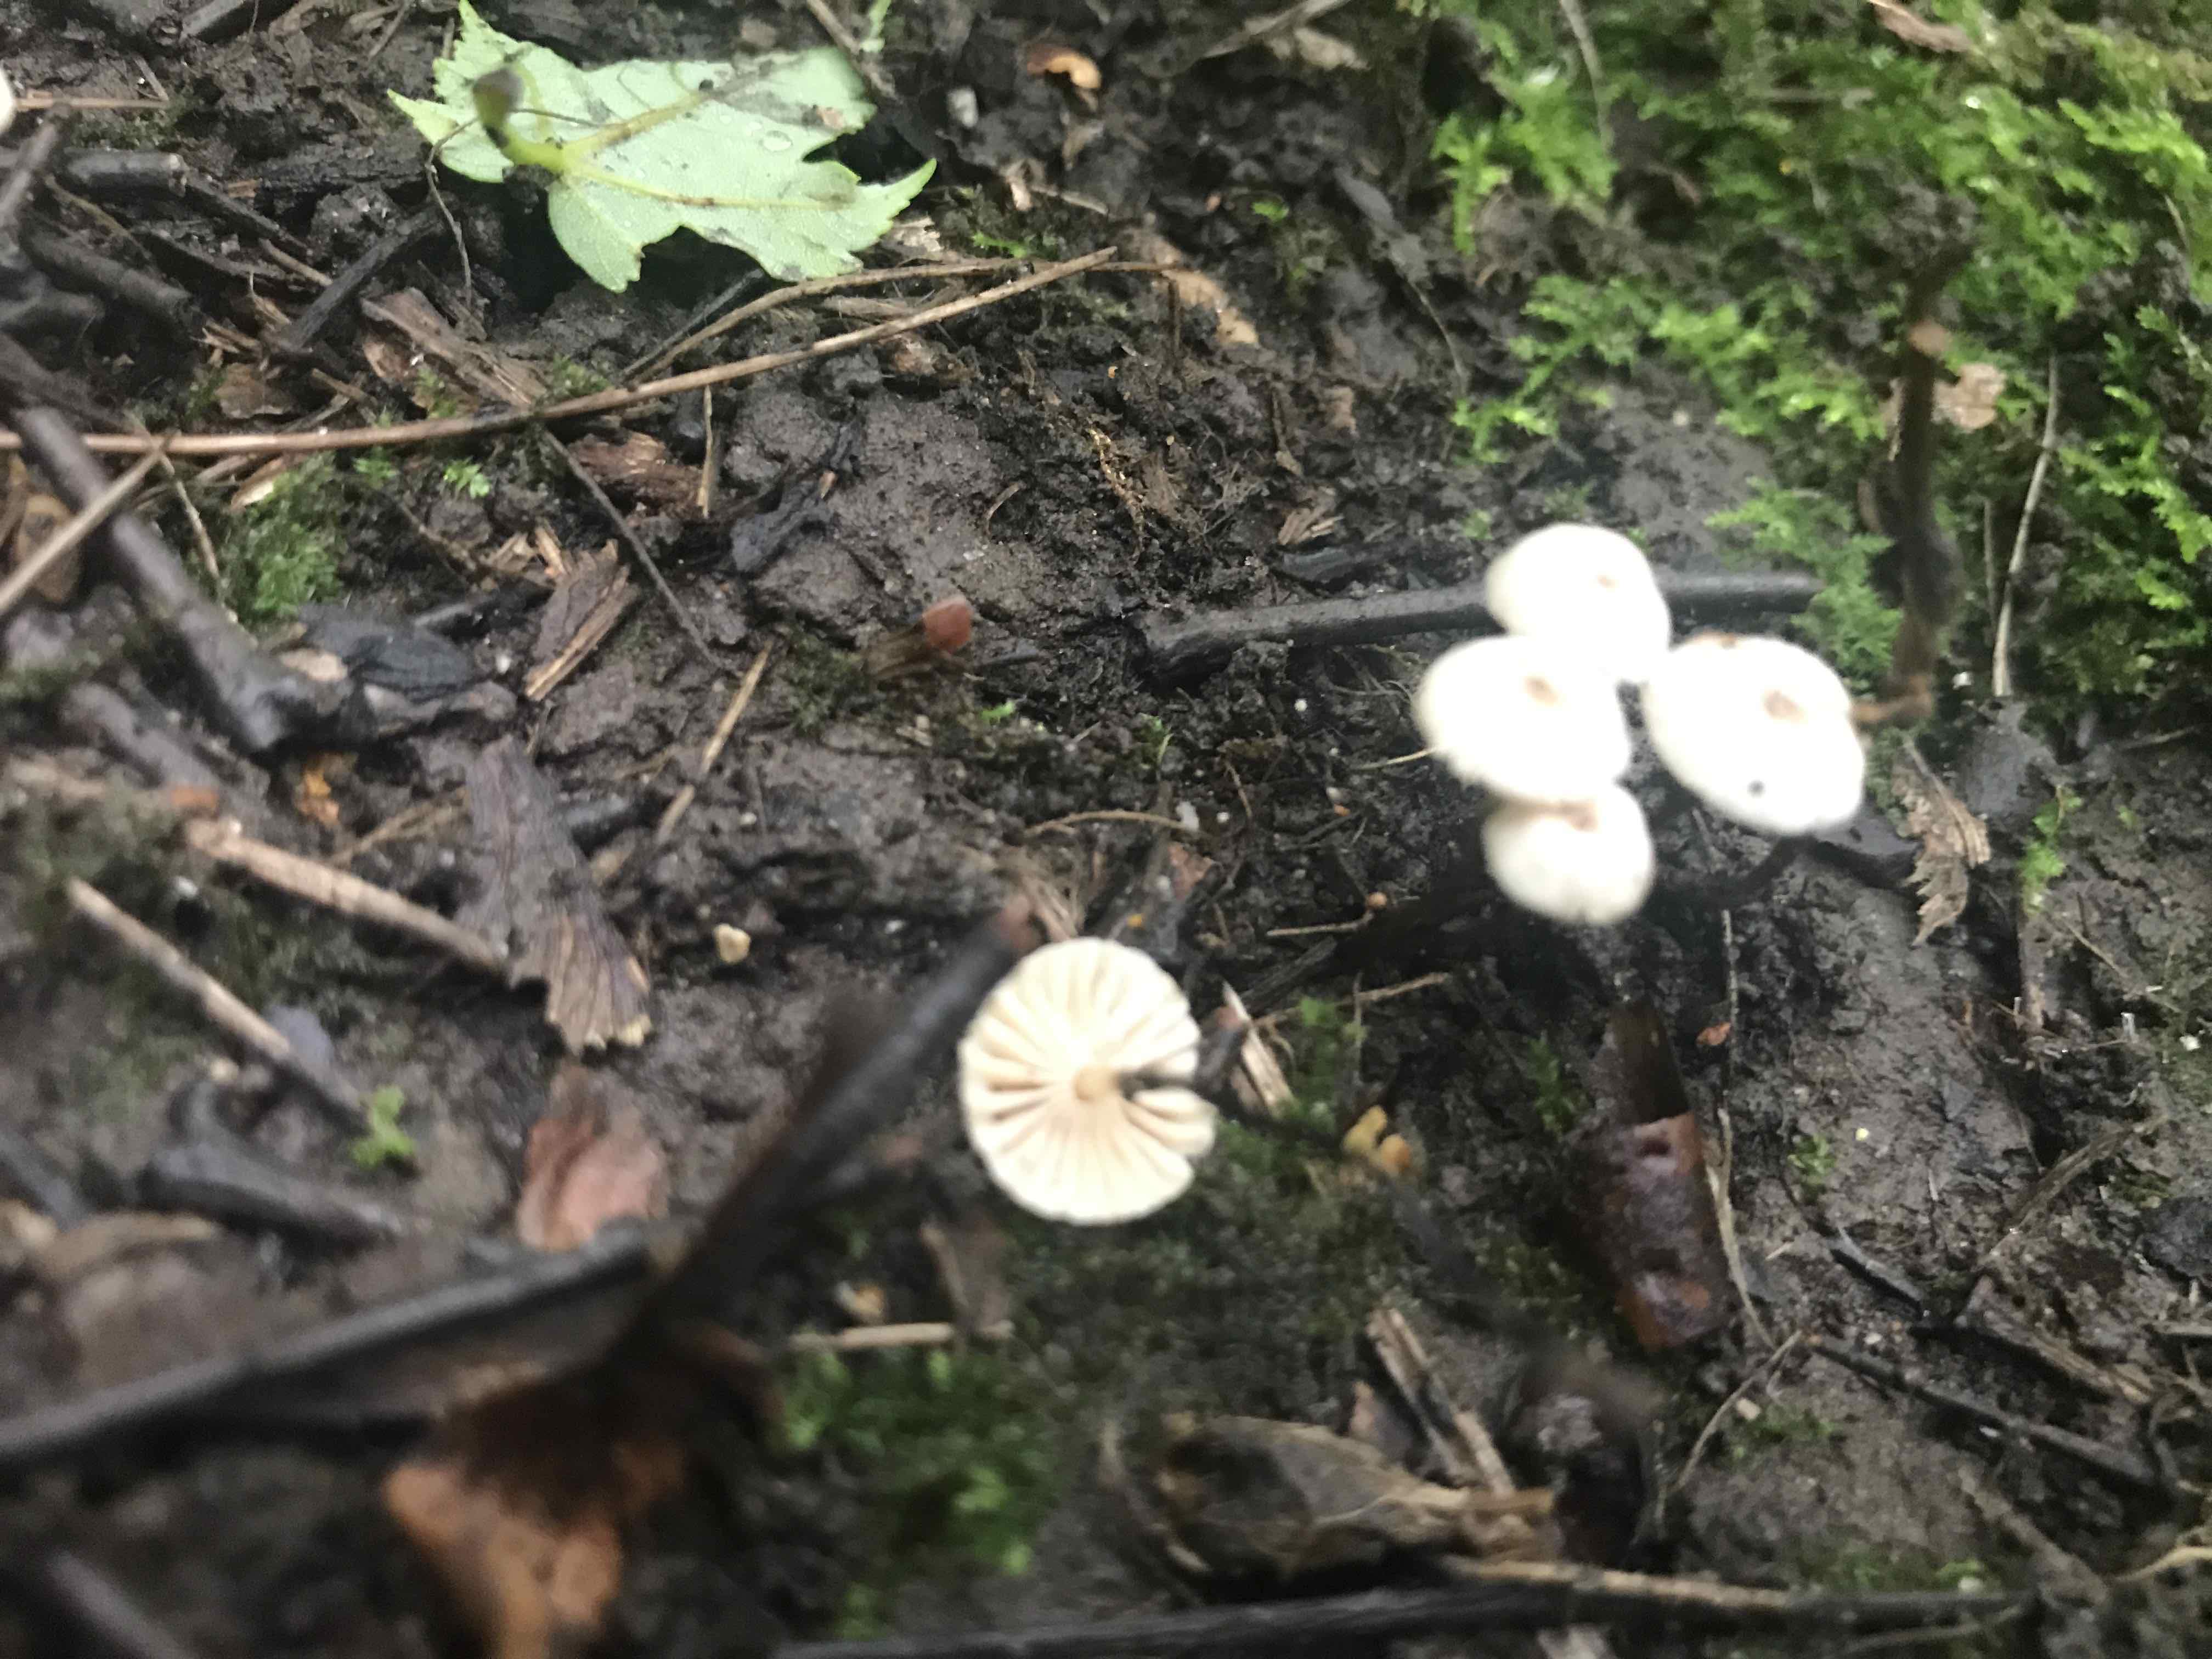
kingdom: Fungi
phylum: Basidiomycota
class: Agaricomycetes
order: Agaricales
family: Marasmiaceae
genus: Marasmius
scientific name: Marasmius rotula
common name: hjul-bruskhat
